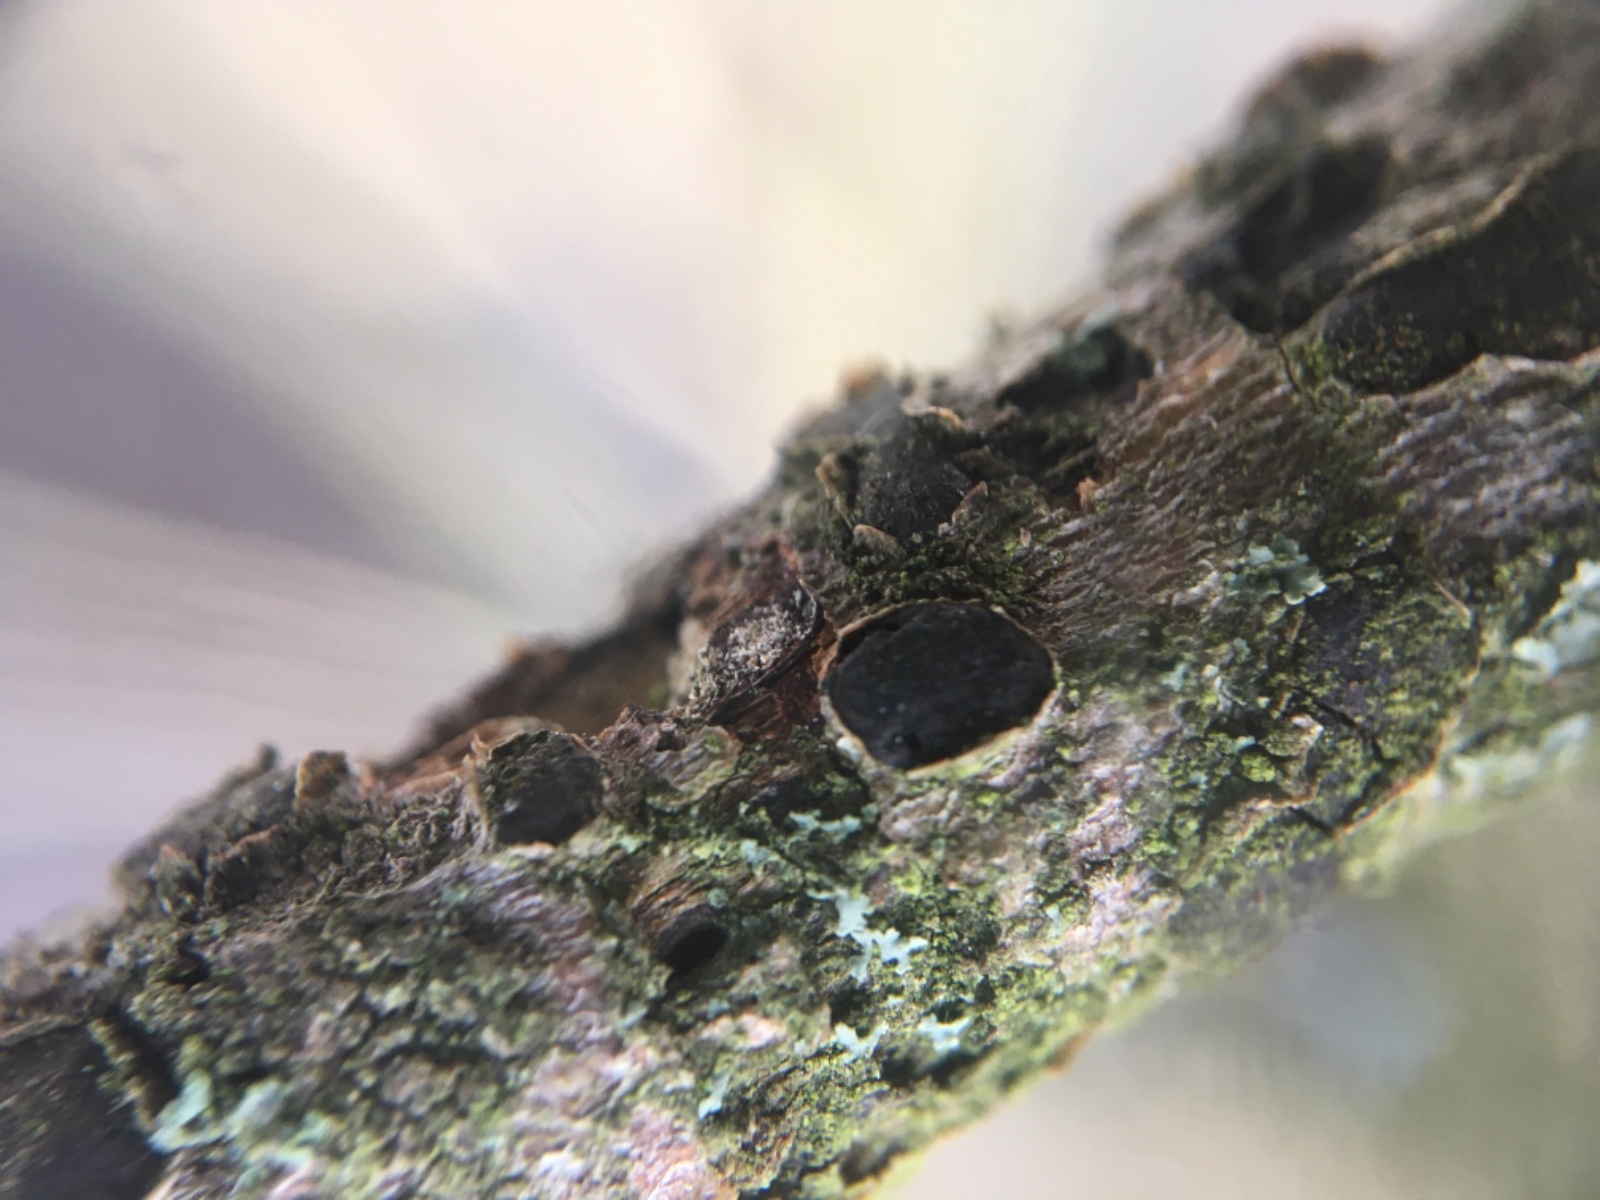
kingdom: Fungi
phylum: Ascomycota
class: Sordariomycetes
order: Xylariales
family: Diatrypaceae
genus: Diatrype
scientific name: Diatrype bullata
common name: pile-kulskorpe
